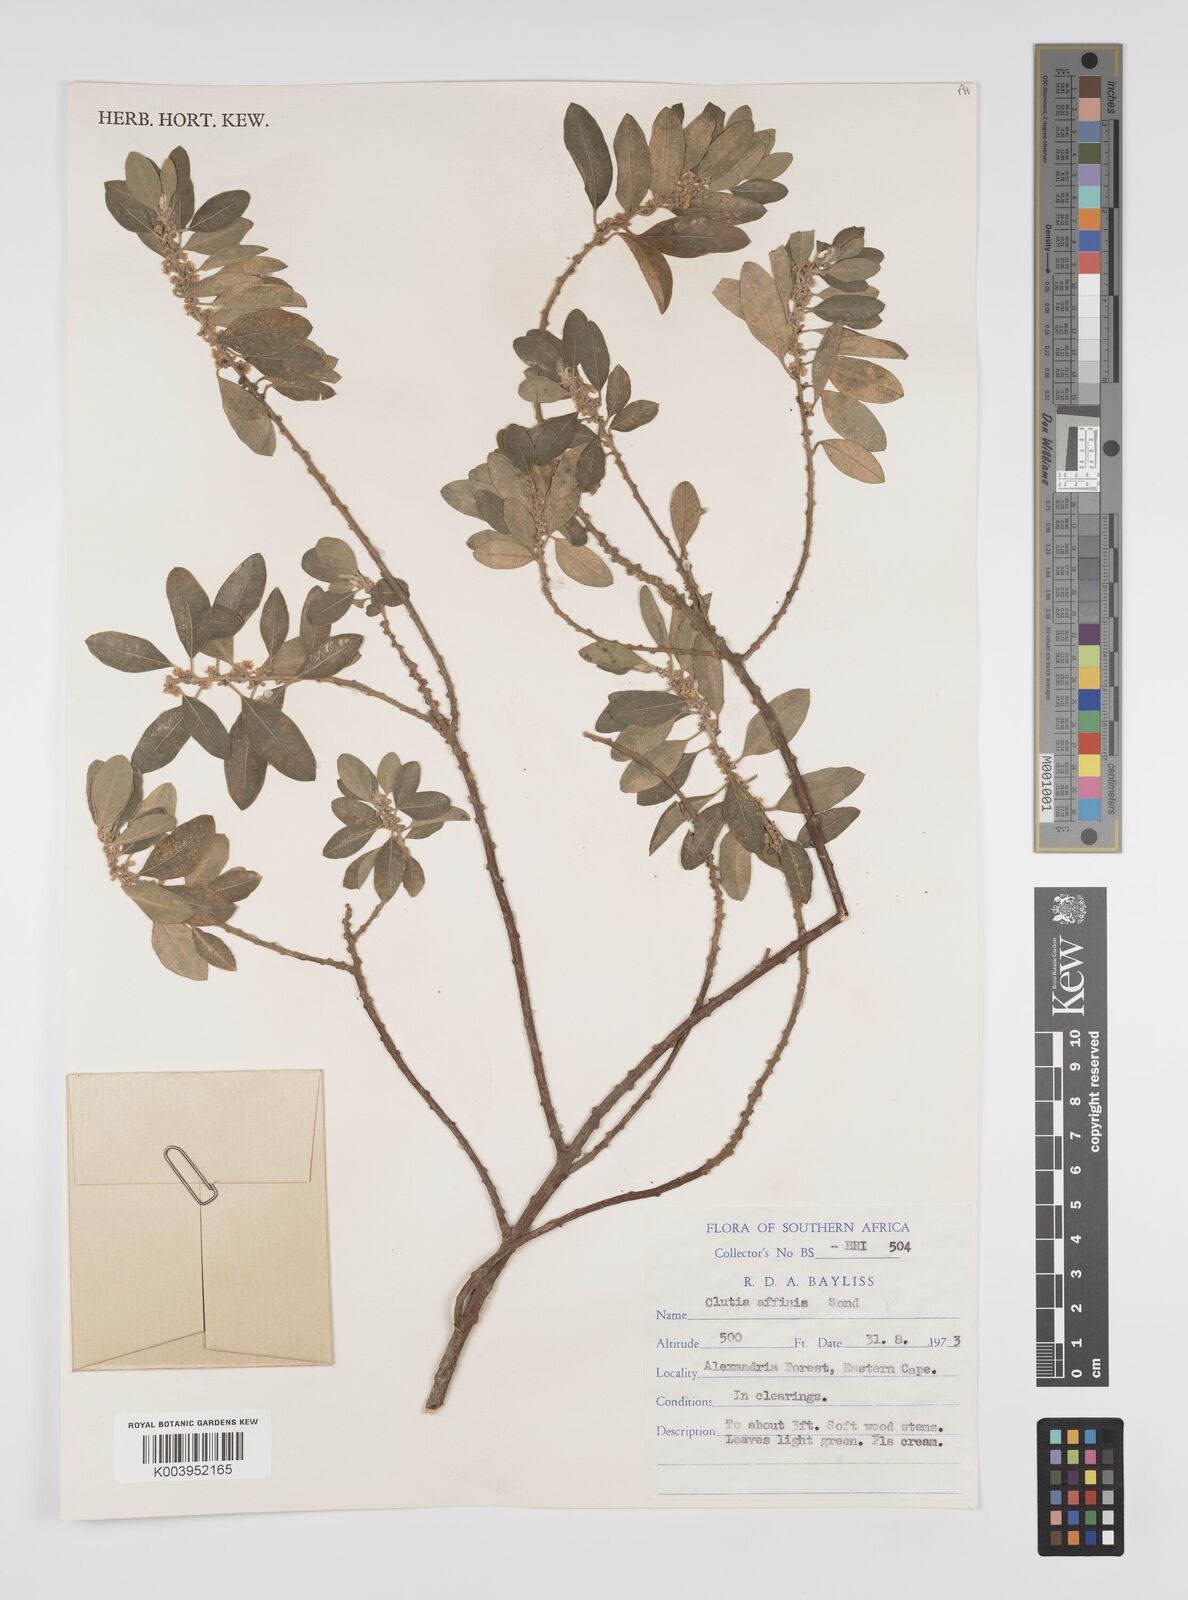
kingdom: Plantae
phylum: Tracheophyta
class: Magnoliopsida
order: Malpighiales
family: Peraceae
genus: Clutia
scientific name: Clutia affinis
